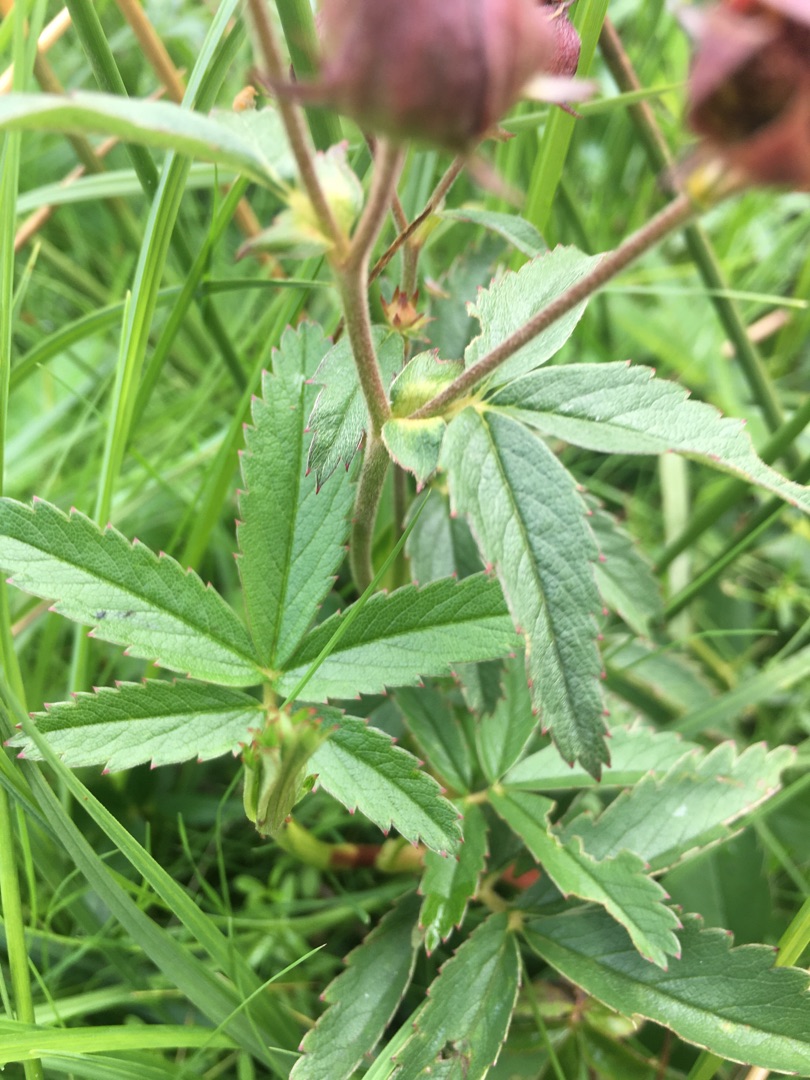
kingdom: Plantae
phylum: Tracheophyta
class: Magnoliopsida
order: Rosales
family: Rosaceae
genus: Comarum
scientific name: Comarum palustre
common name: Kragefod
